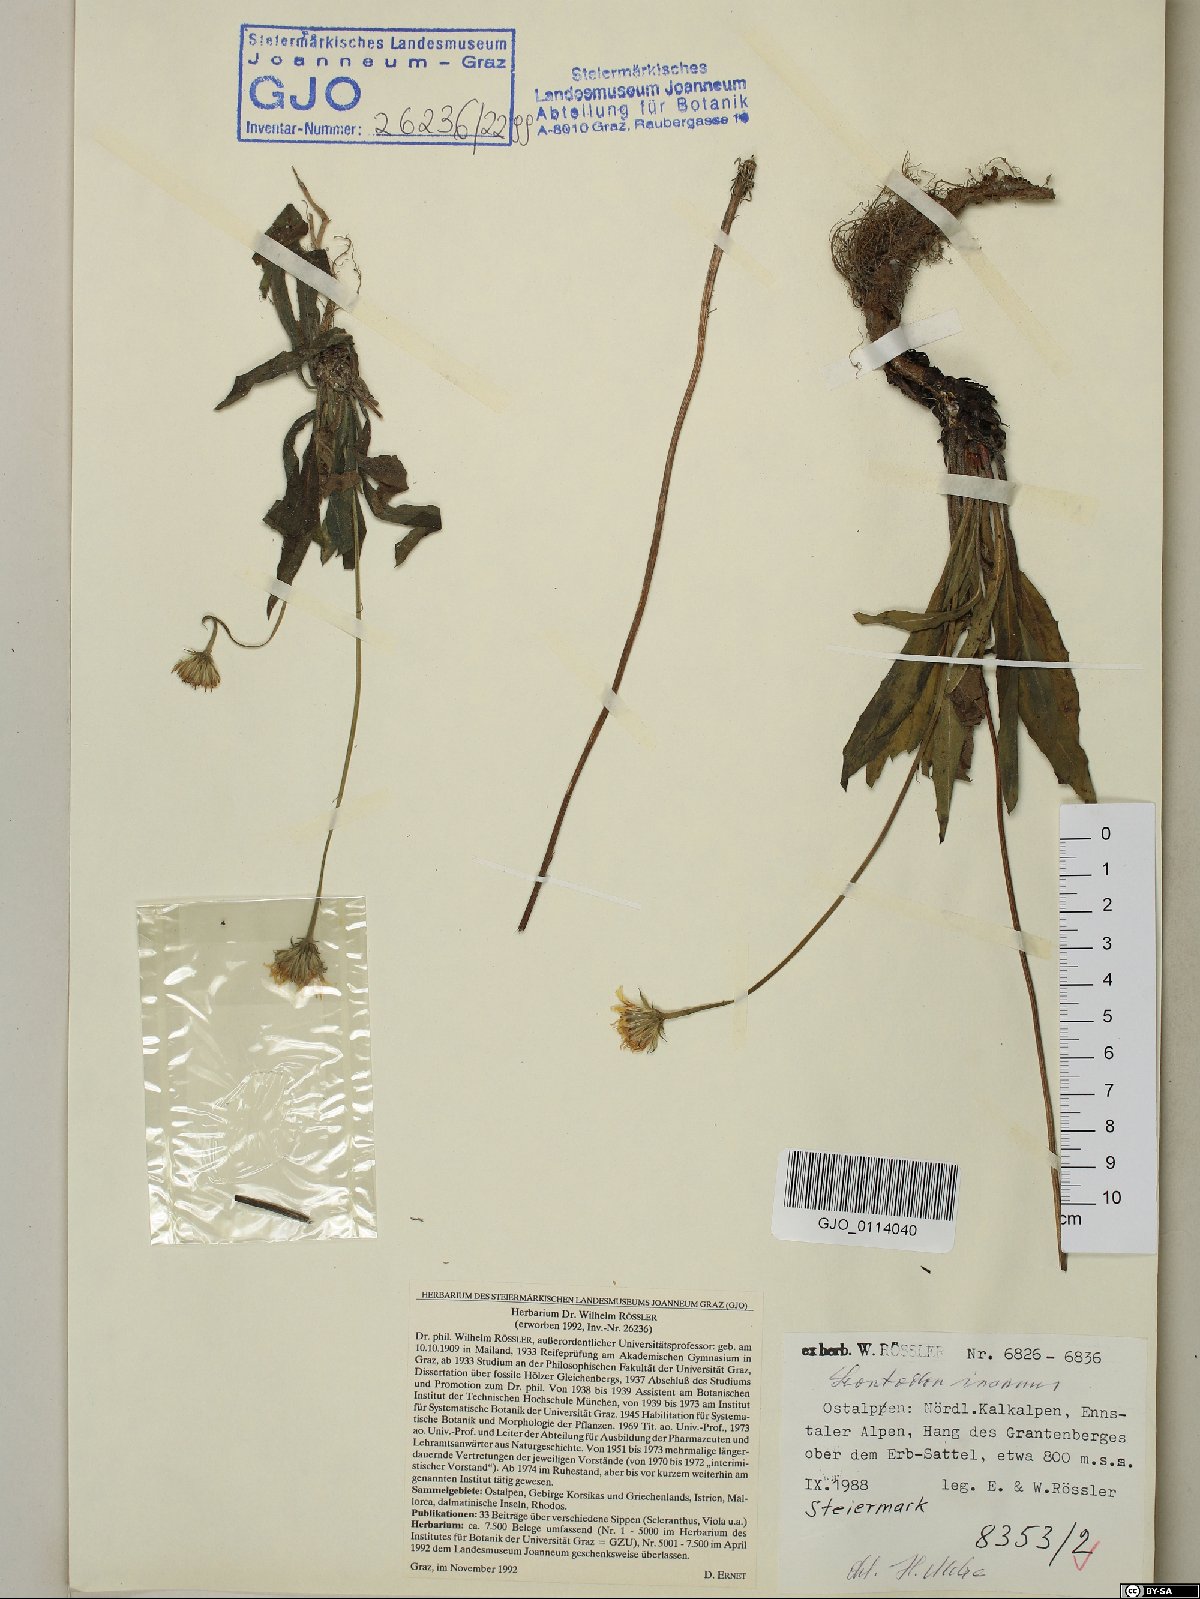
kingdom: Plantae
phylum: Tracheophyta
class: Magnoliopsida
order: Asterales
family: Asteraceae
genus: Leontodon
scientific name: Leontodon incanus
